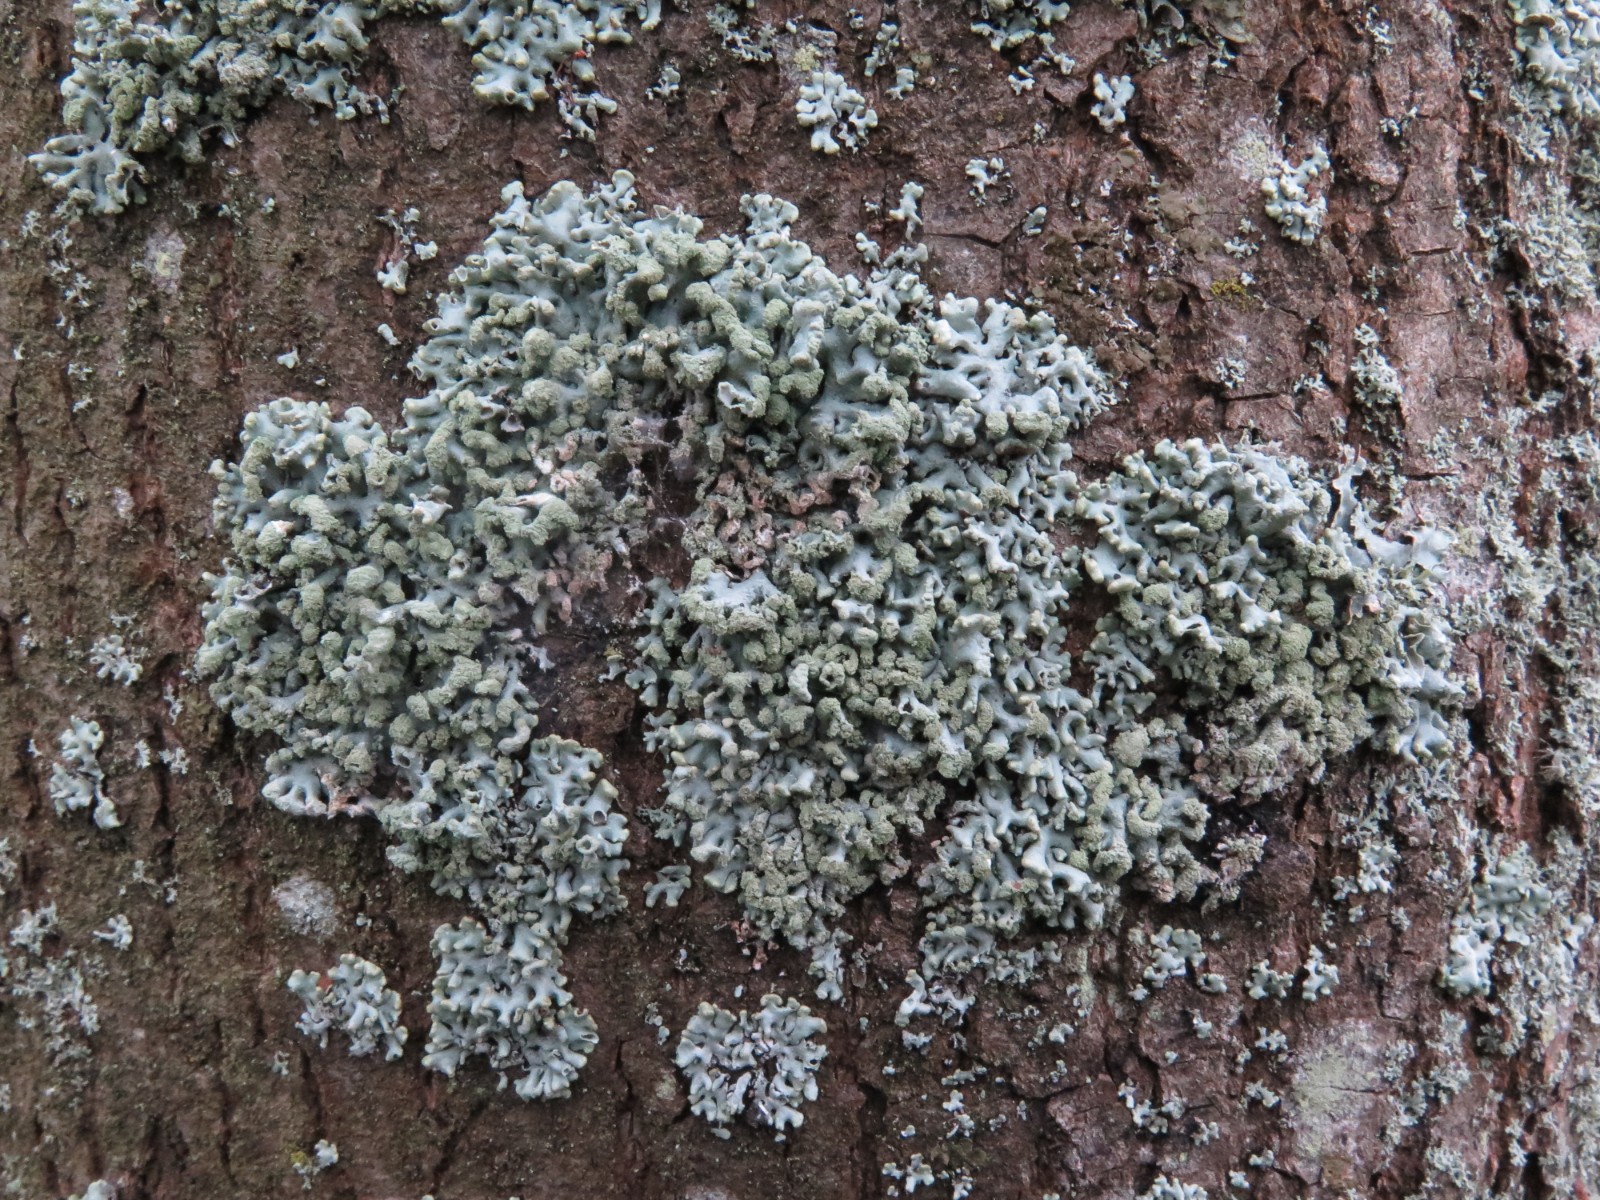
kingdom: Fungi
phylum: Ascomycota
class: Lecanoromycetes
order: Lecanorales
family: Parmeliaceae
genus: Hypogymnia
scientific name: Hypogymnia physodes
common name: almindelig kvistlav
